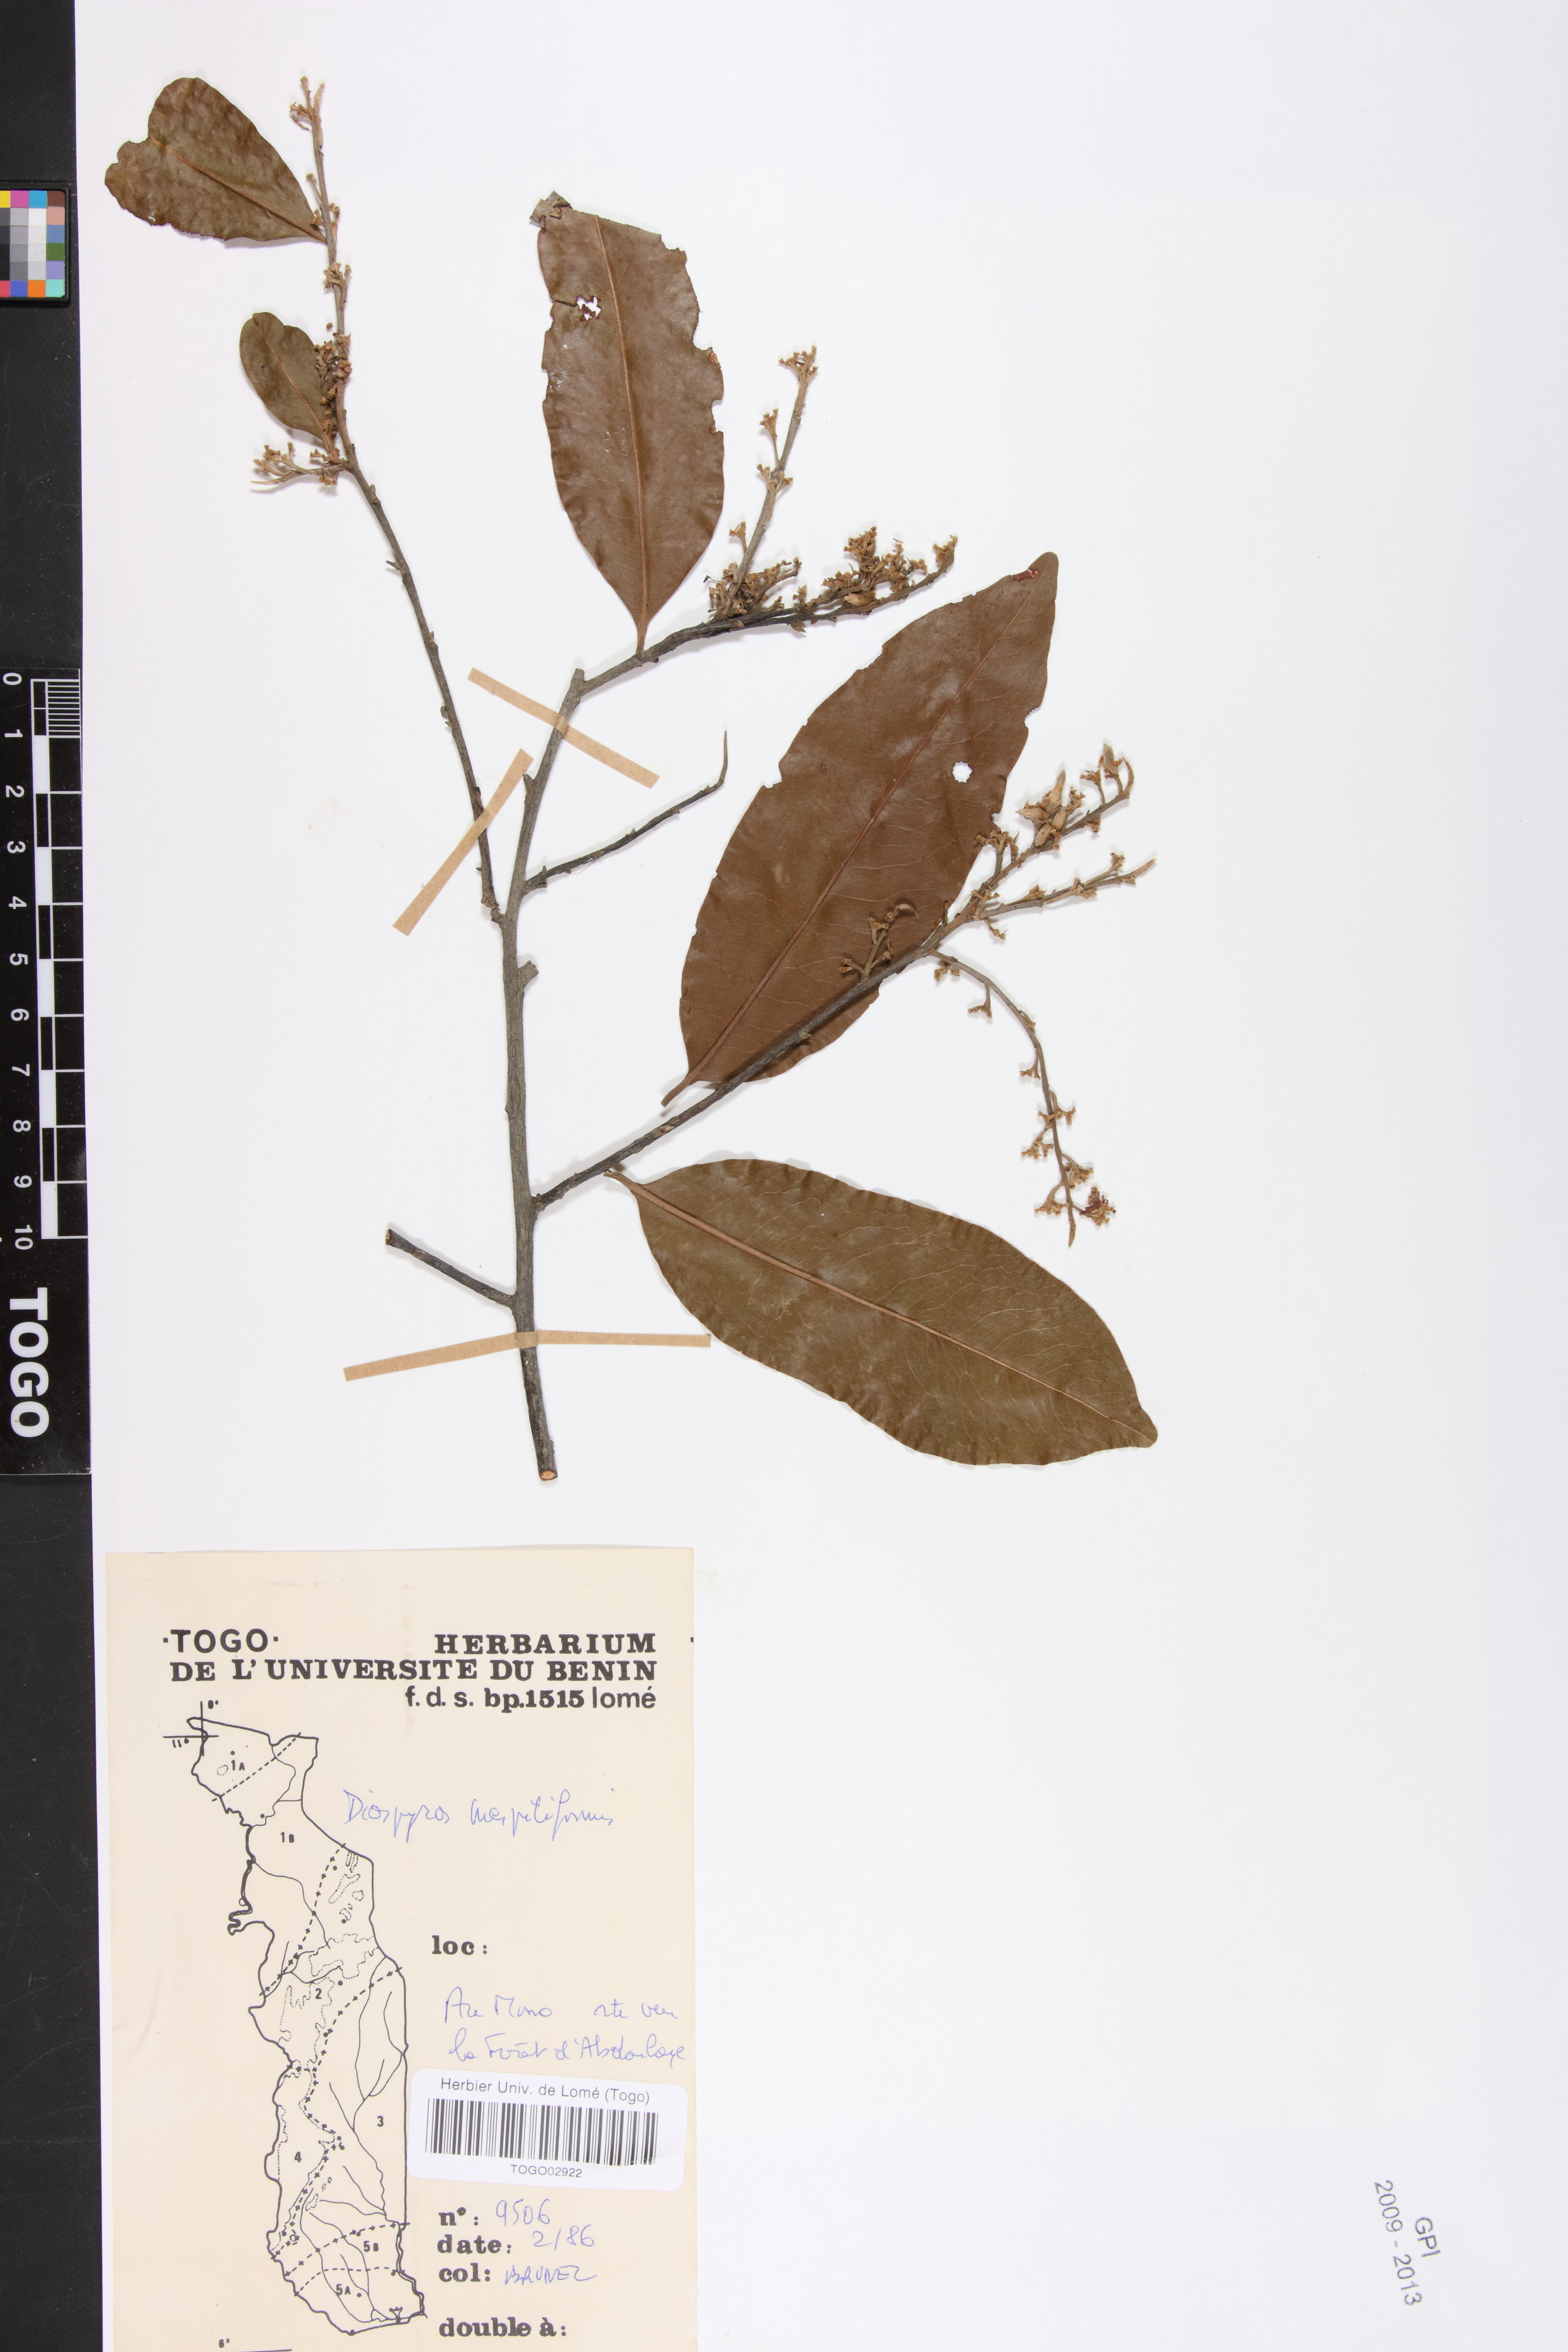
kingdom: Plantae
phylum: Tracheophyta
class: Magnoliopsida
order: Ericales
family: Ebenaceae
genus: Diospyros
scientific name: Diospyros mespiliformis
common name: Ebony diospyros
